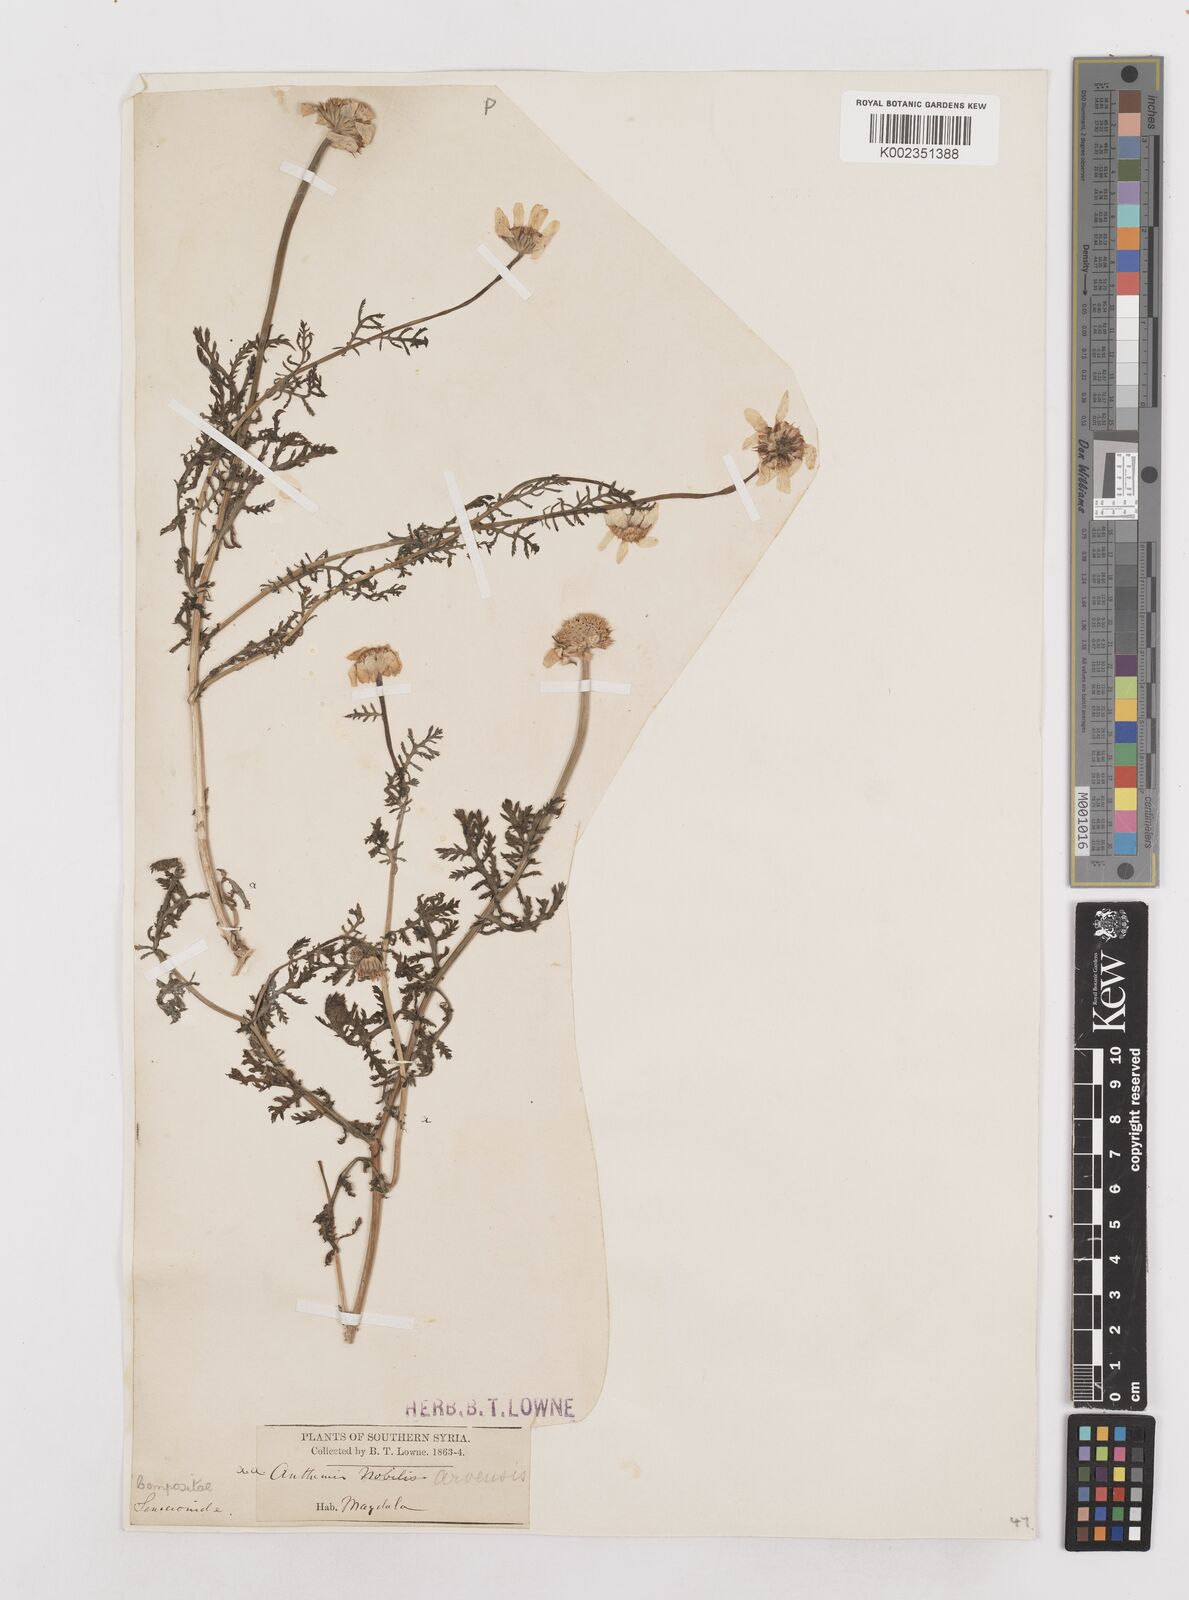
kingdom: Plantae
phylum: Tracheophyta
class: Magnoliopsida
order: Asterales
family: Asteraceae
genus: Anthemis
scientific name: Anthemis arvensis
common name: Corn chamomile
